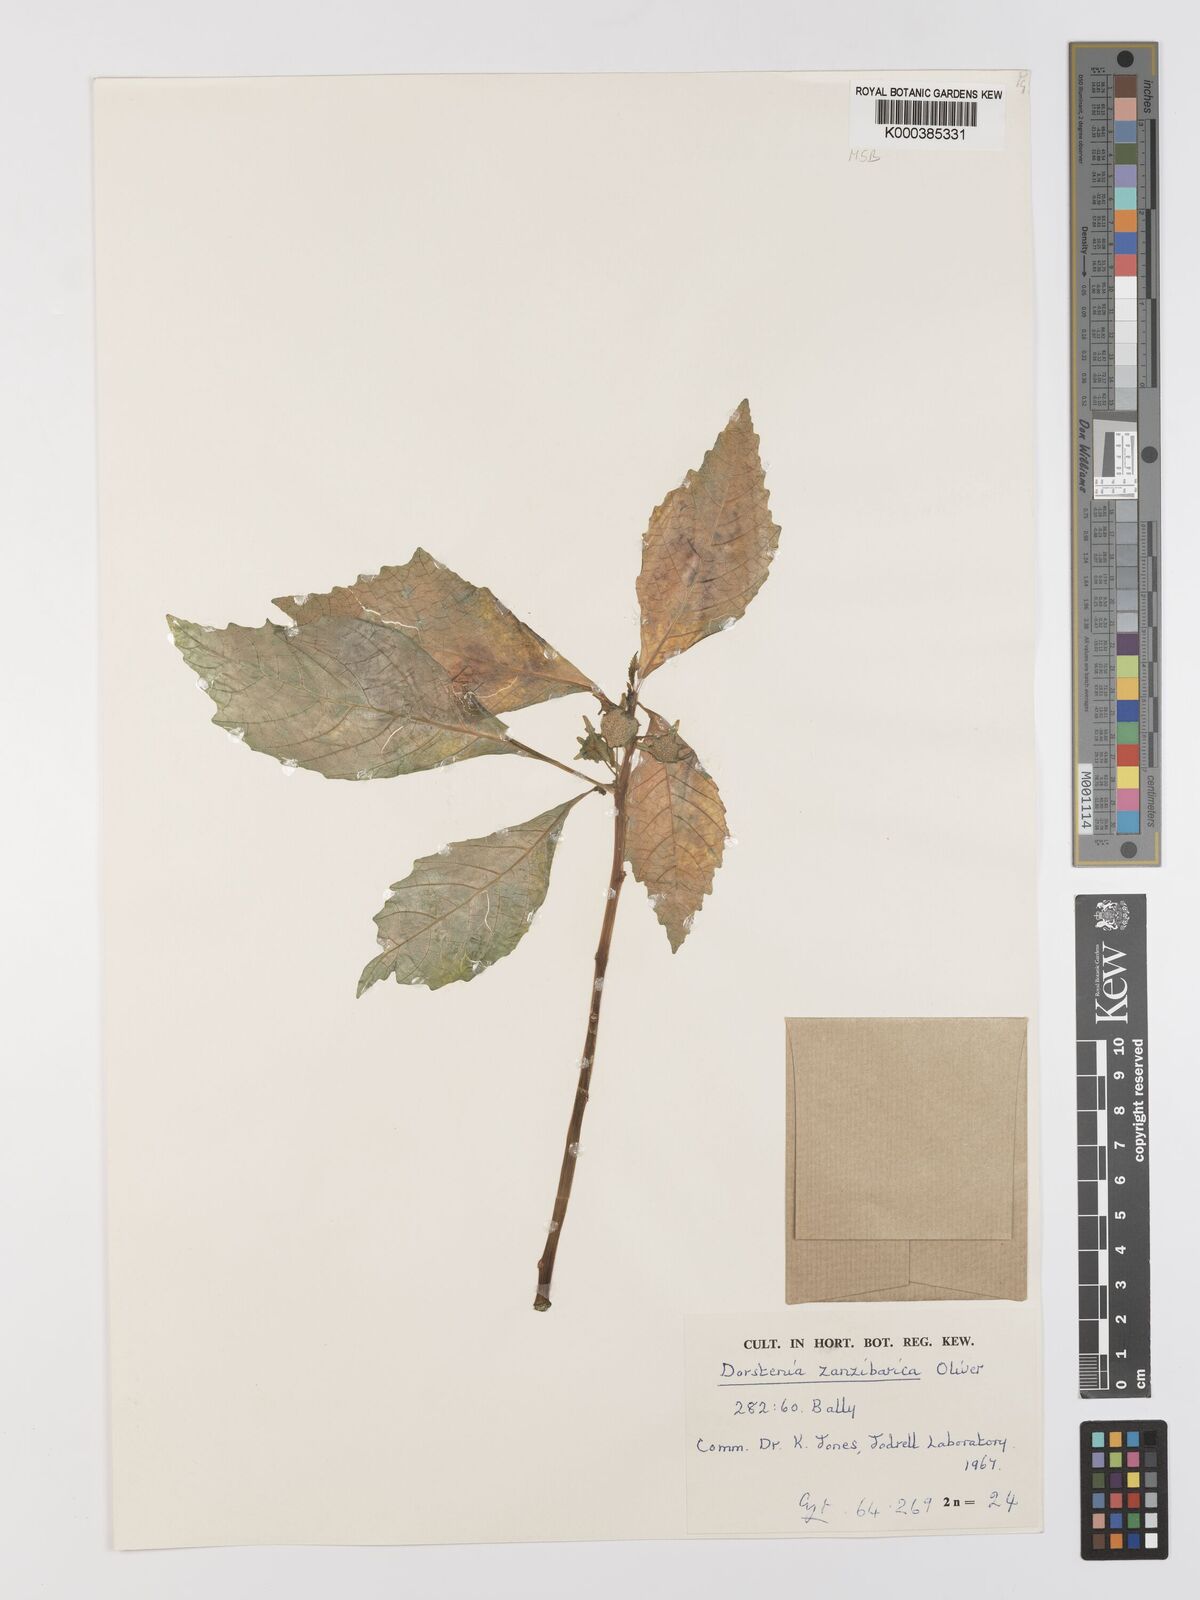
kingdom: Plantae
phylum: Tracheophyta
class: Magnoliopsida
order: Rosales
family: Moraceae
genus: Dorstenia
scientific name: Dorstenia zanzibarica
